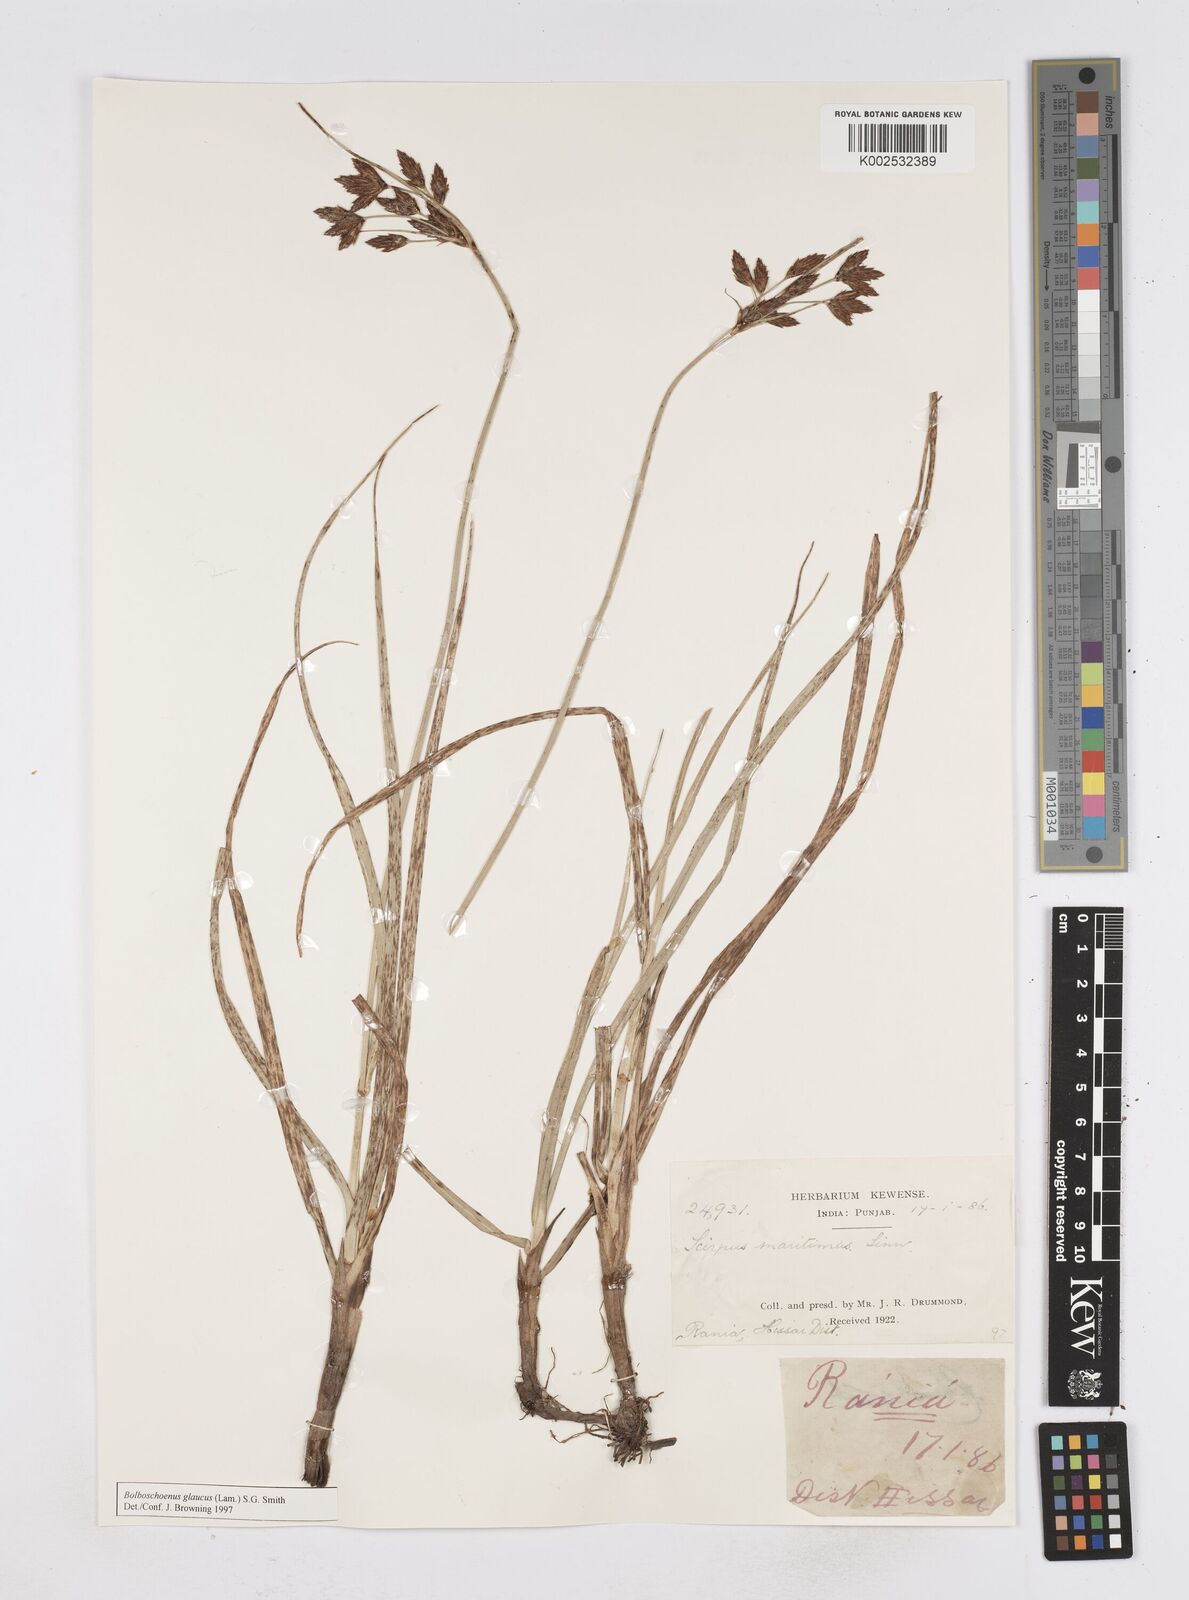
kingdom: Plantae
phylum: Tracheophyta
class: Liliopsida
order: Poales
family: Cyperaceae
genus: Bolboschoenus
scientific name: Bolboschoenus maritimus
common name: Sea club-rush
